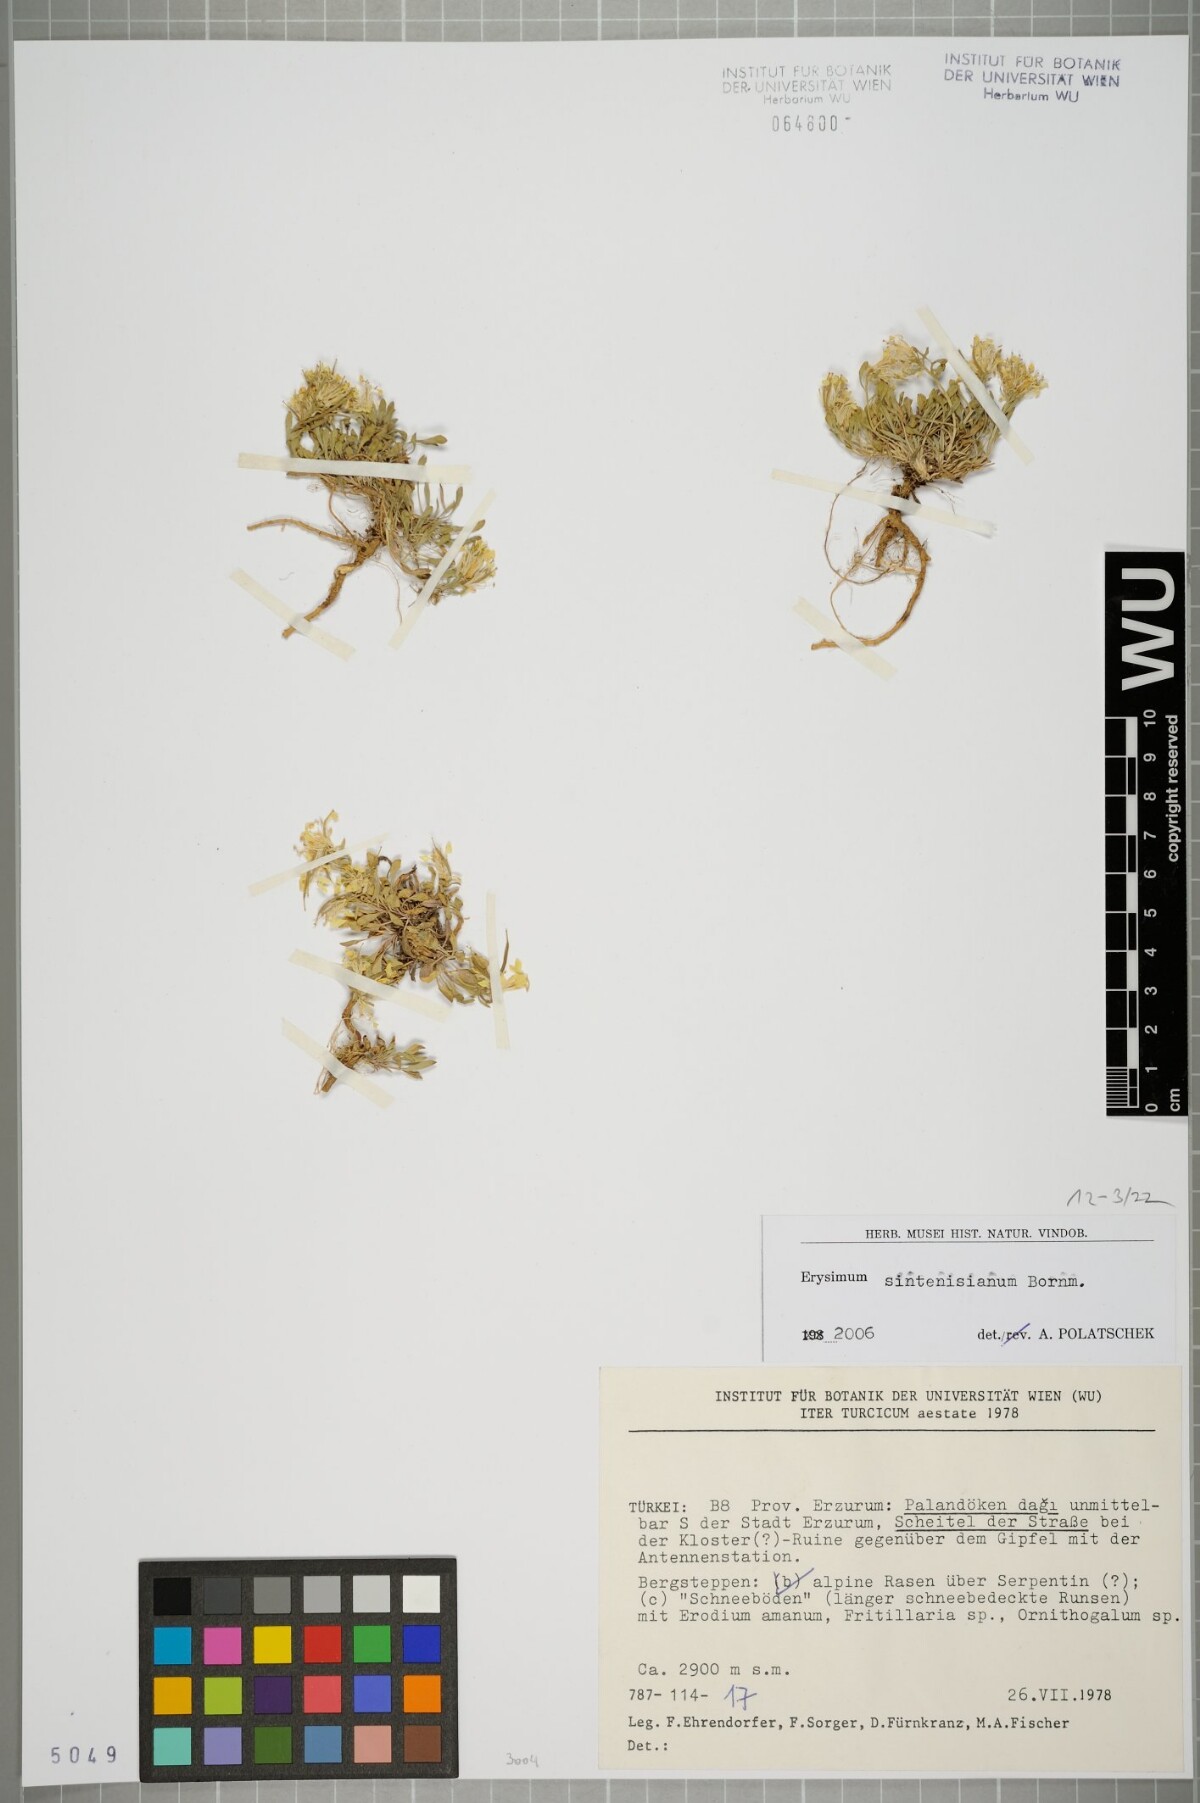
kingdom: Plantae
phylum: Tracheophyta
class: Magnoliopsida
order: Brassicales
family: Brassicaceae
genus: Erysimum
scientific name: Erysimum sintenisianum
